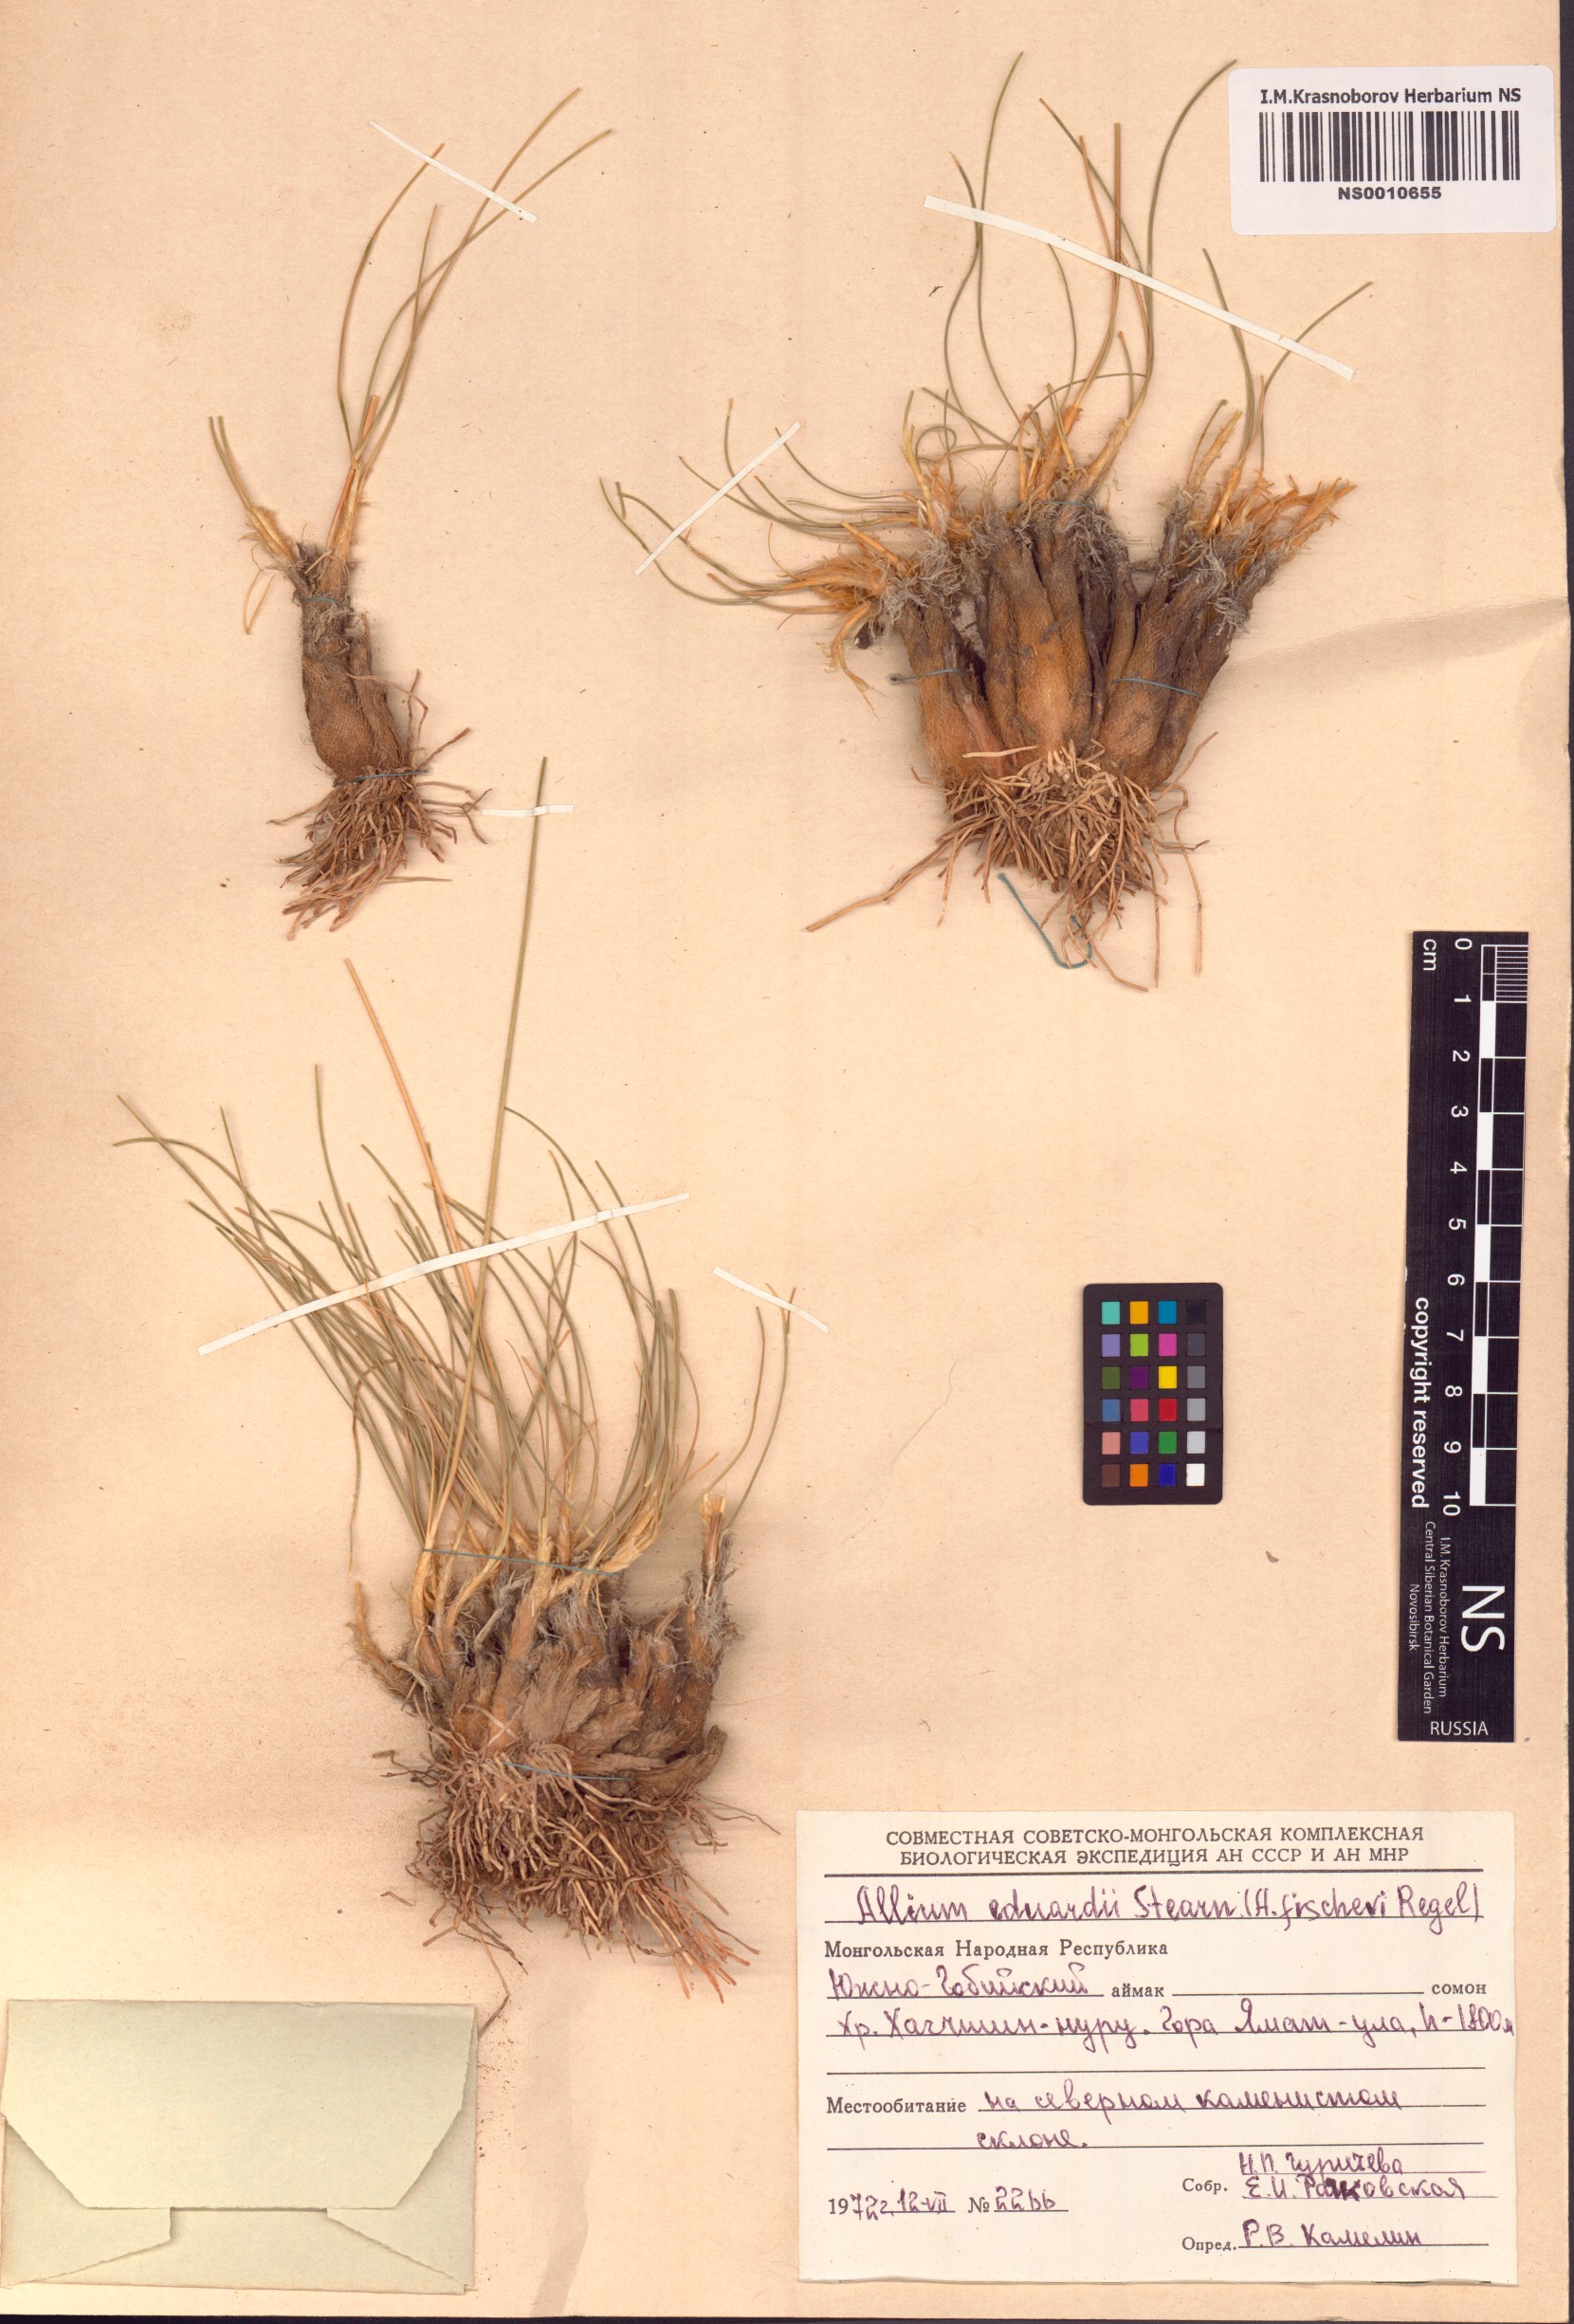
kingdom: Plantae
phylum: Tracheophyta
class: Liliopsida
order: Asparagales
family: Amaryllidaceae
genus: Allium
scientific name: Allium eduardi
